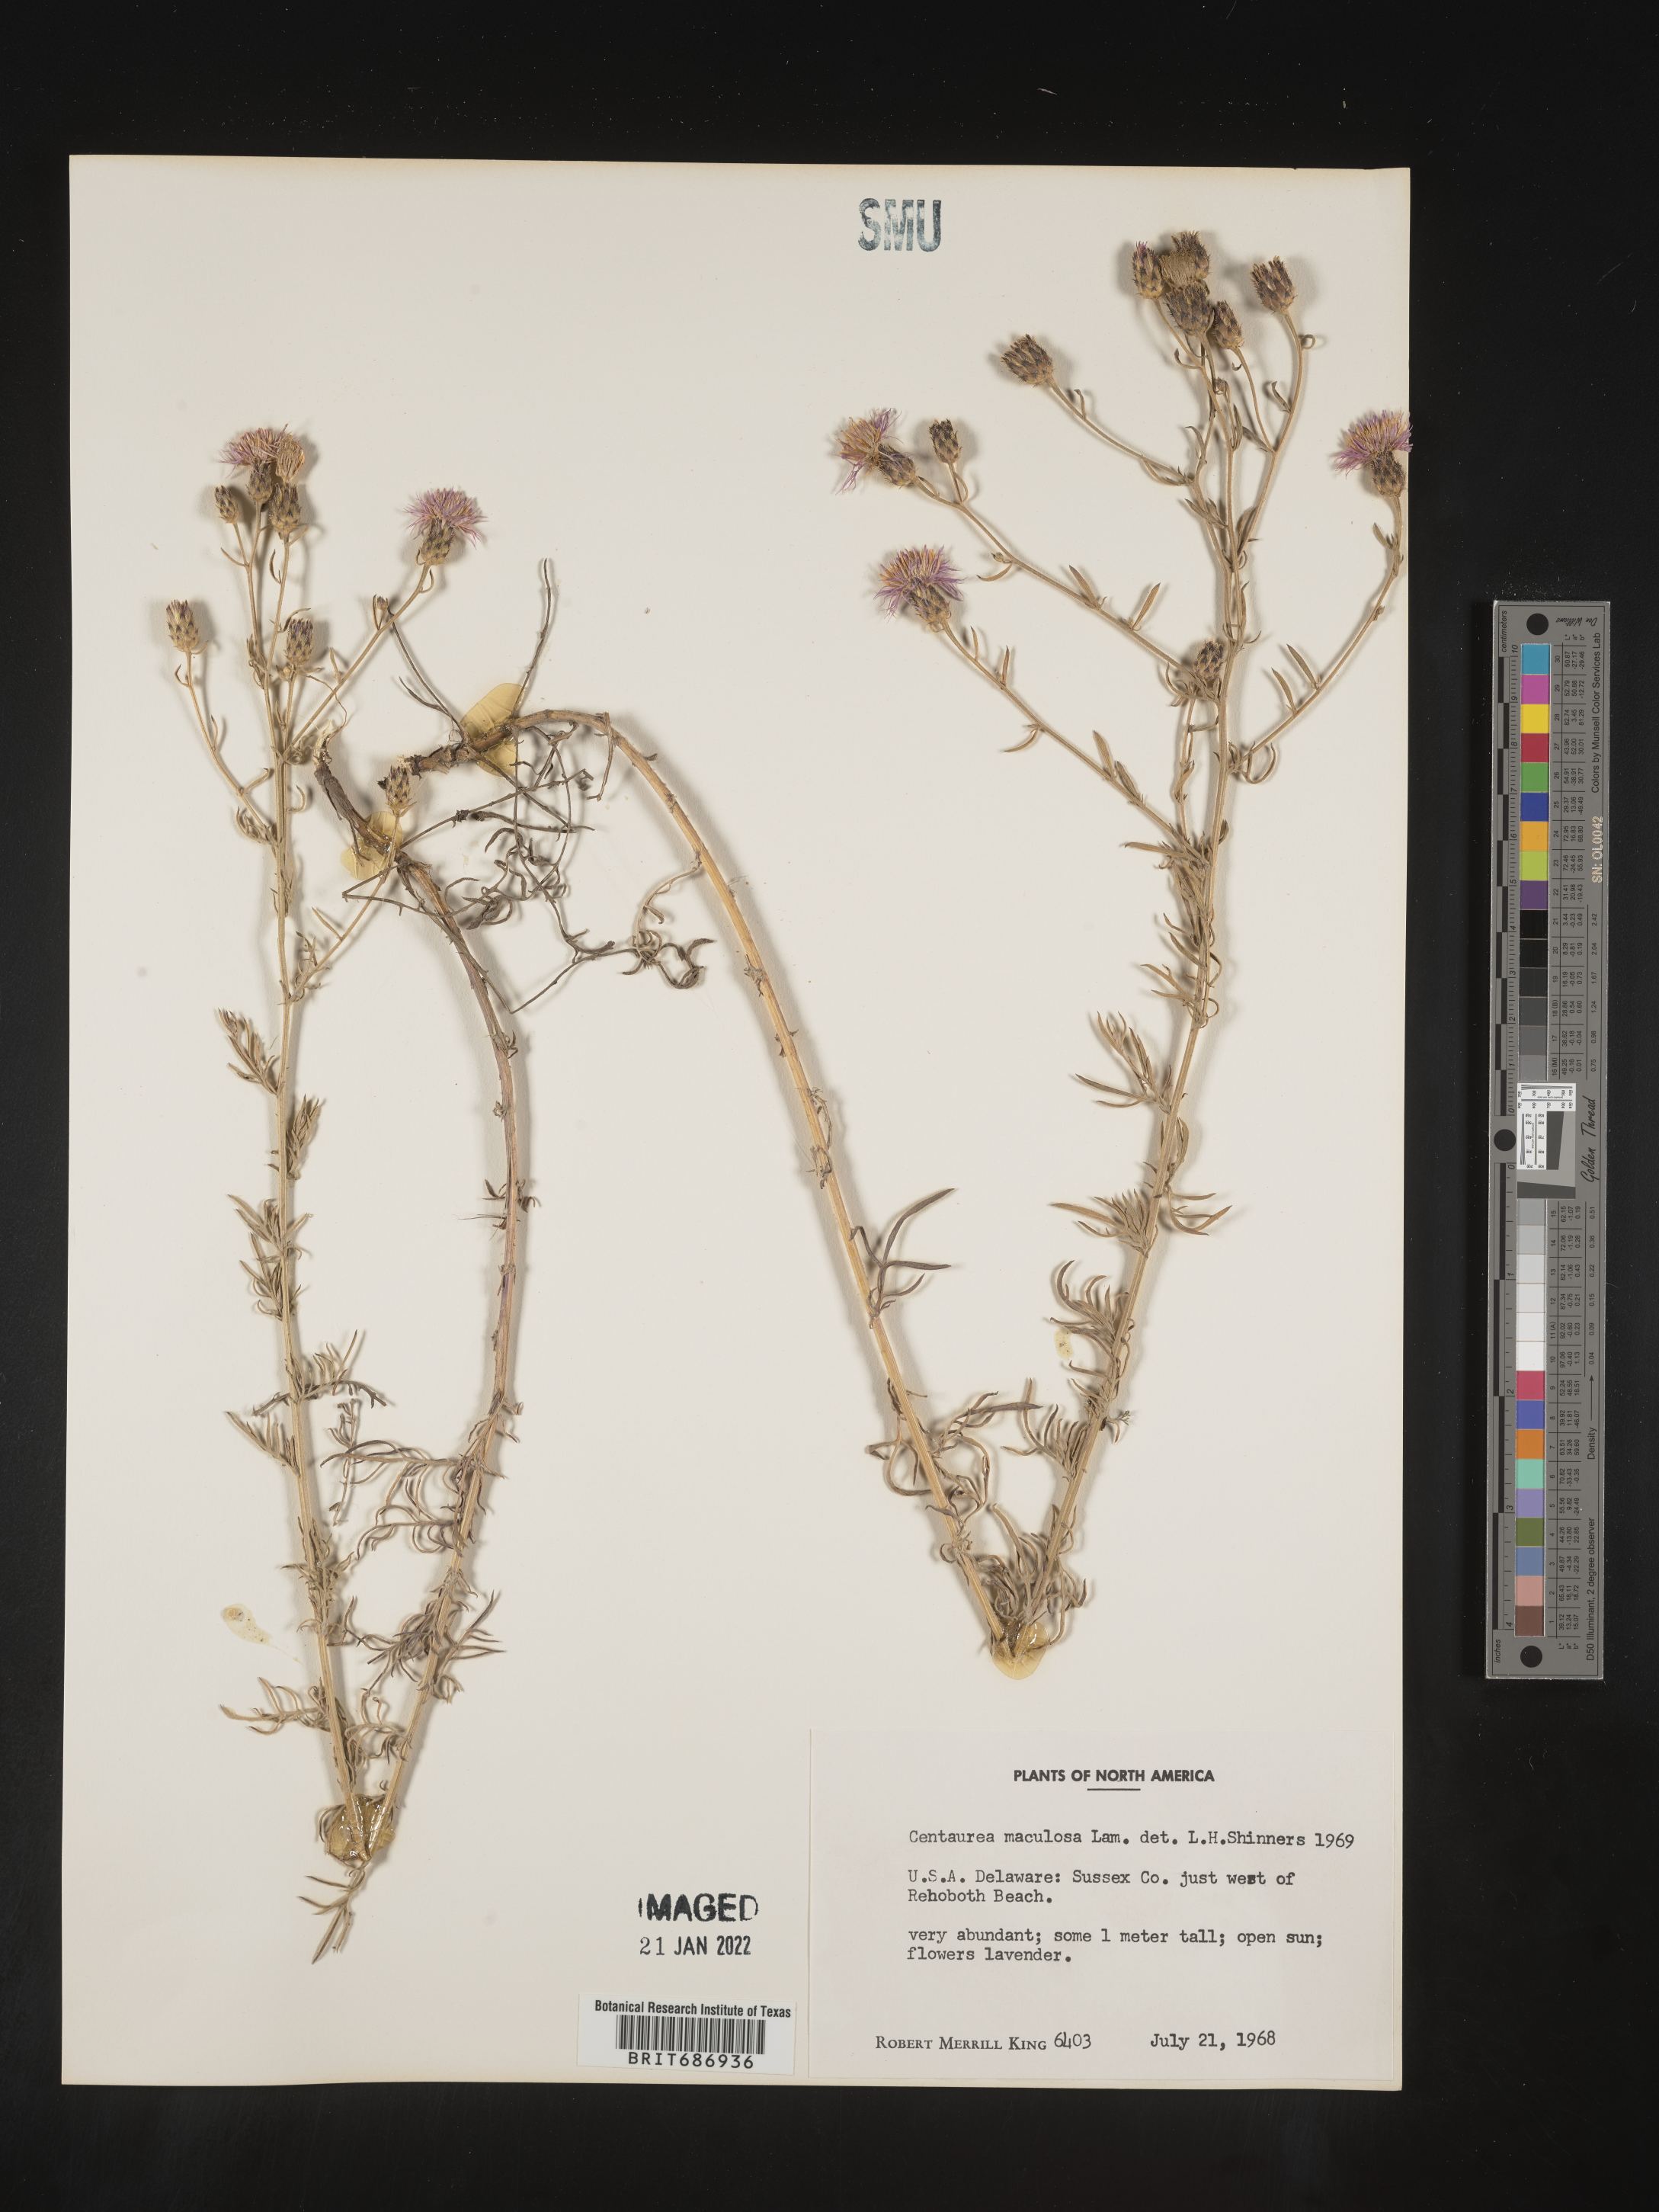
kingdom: Plantae
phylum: Tracheophyta
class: Magnoliopsida
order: Asterales
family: Asteraceae
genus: Centaurea
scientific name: Centaurea
